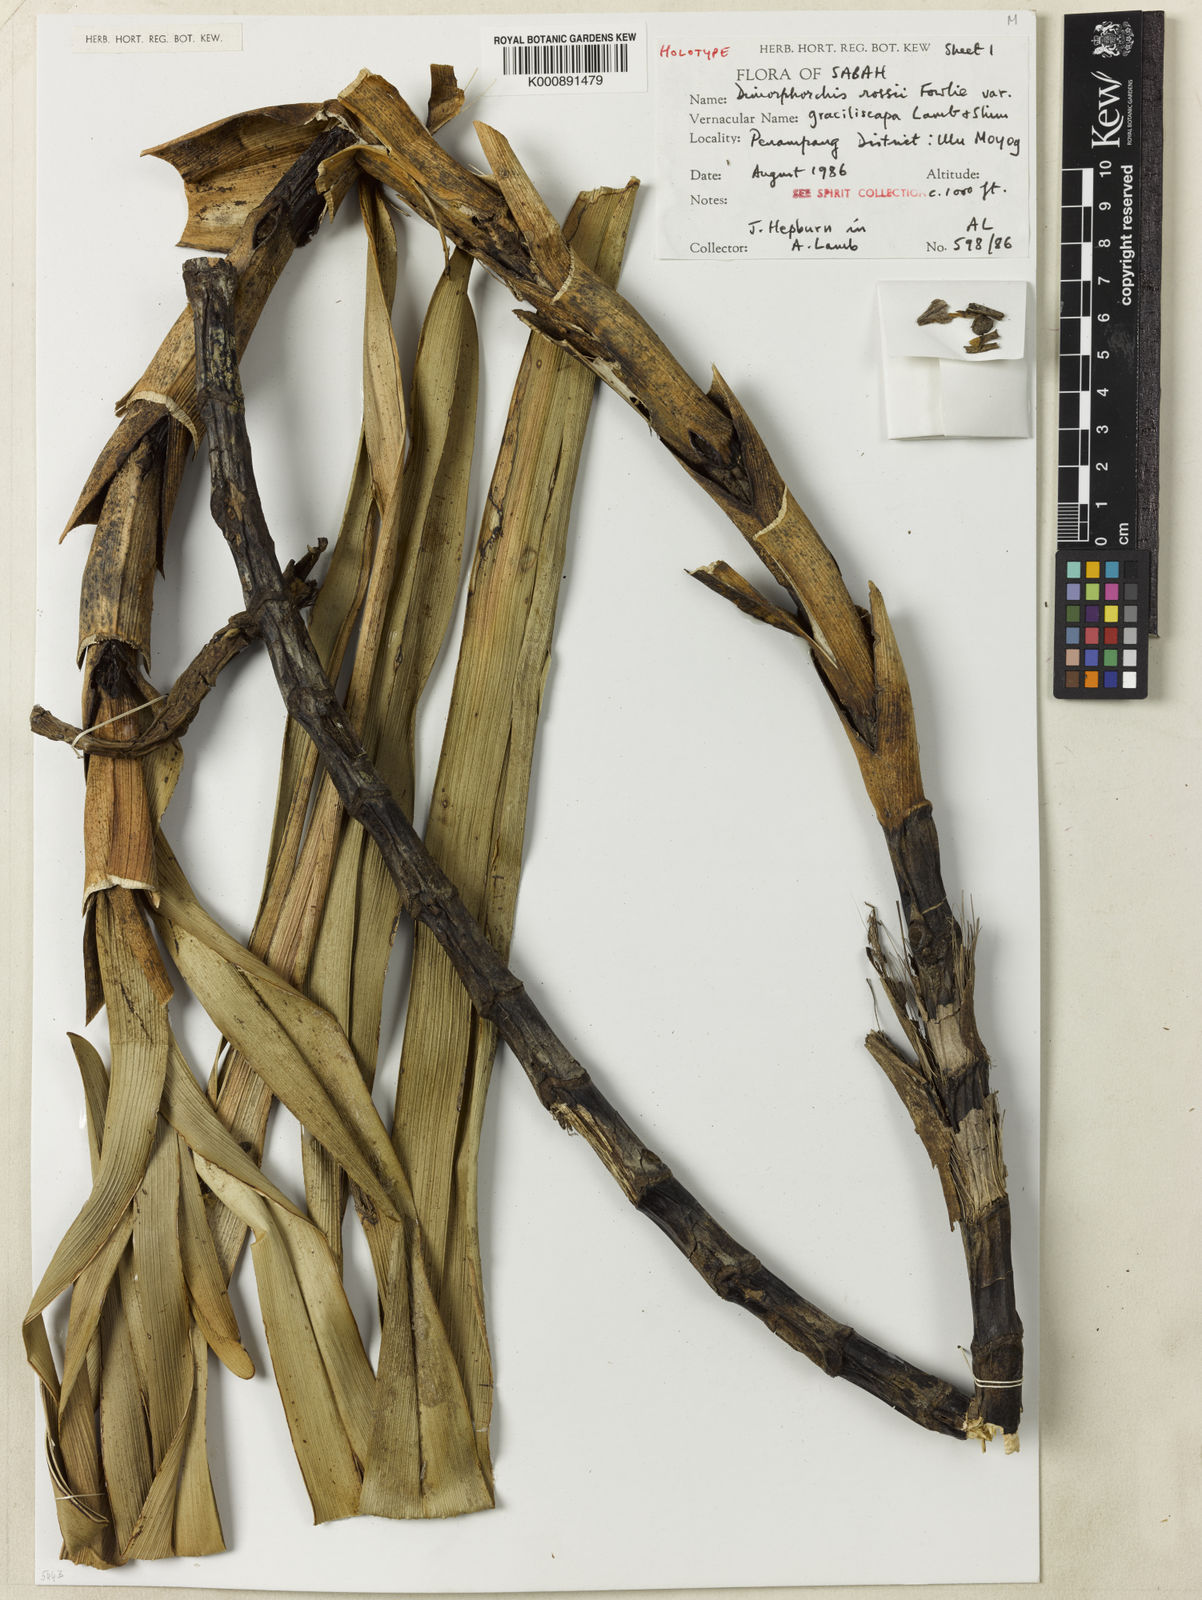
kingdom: Plantae
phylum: Tracheophyta
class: Liliopsida
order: Asparagales
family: Orchidaceae
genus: Dimorphorchis
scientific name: Dimorphorchis graciliscapa
